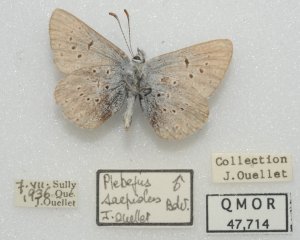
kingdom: Animalia
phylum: Arthropoda
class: Insecta
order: Lepidoptera
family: Lycaenidae
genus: Plebejus
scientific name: Plebejus saepiolus
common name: Greenish Blue
